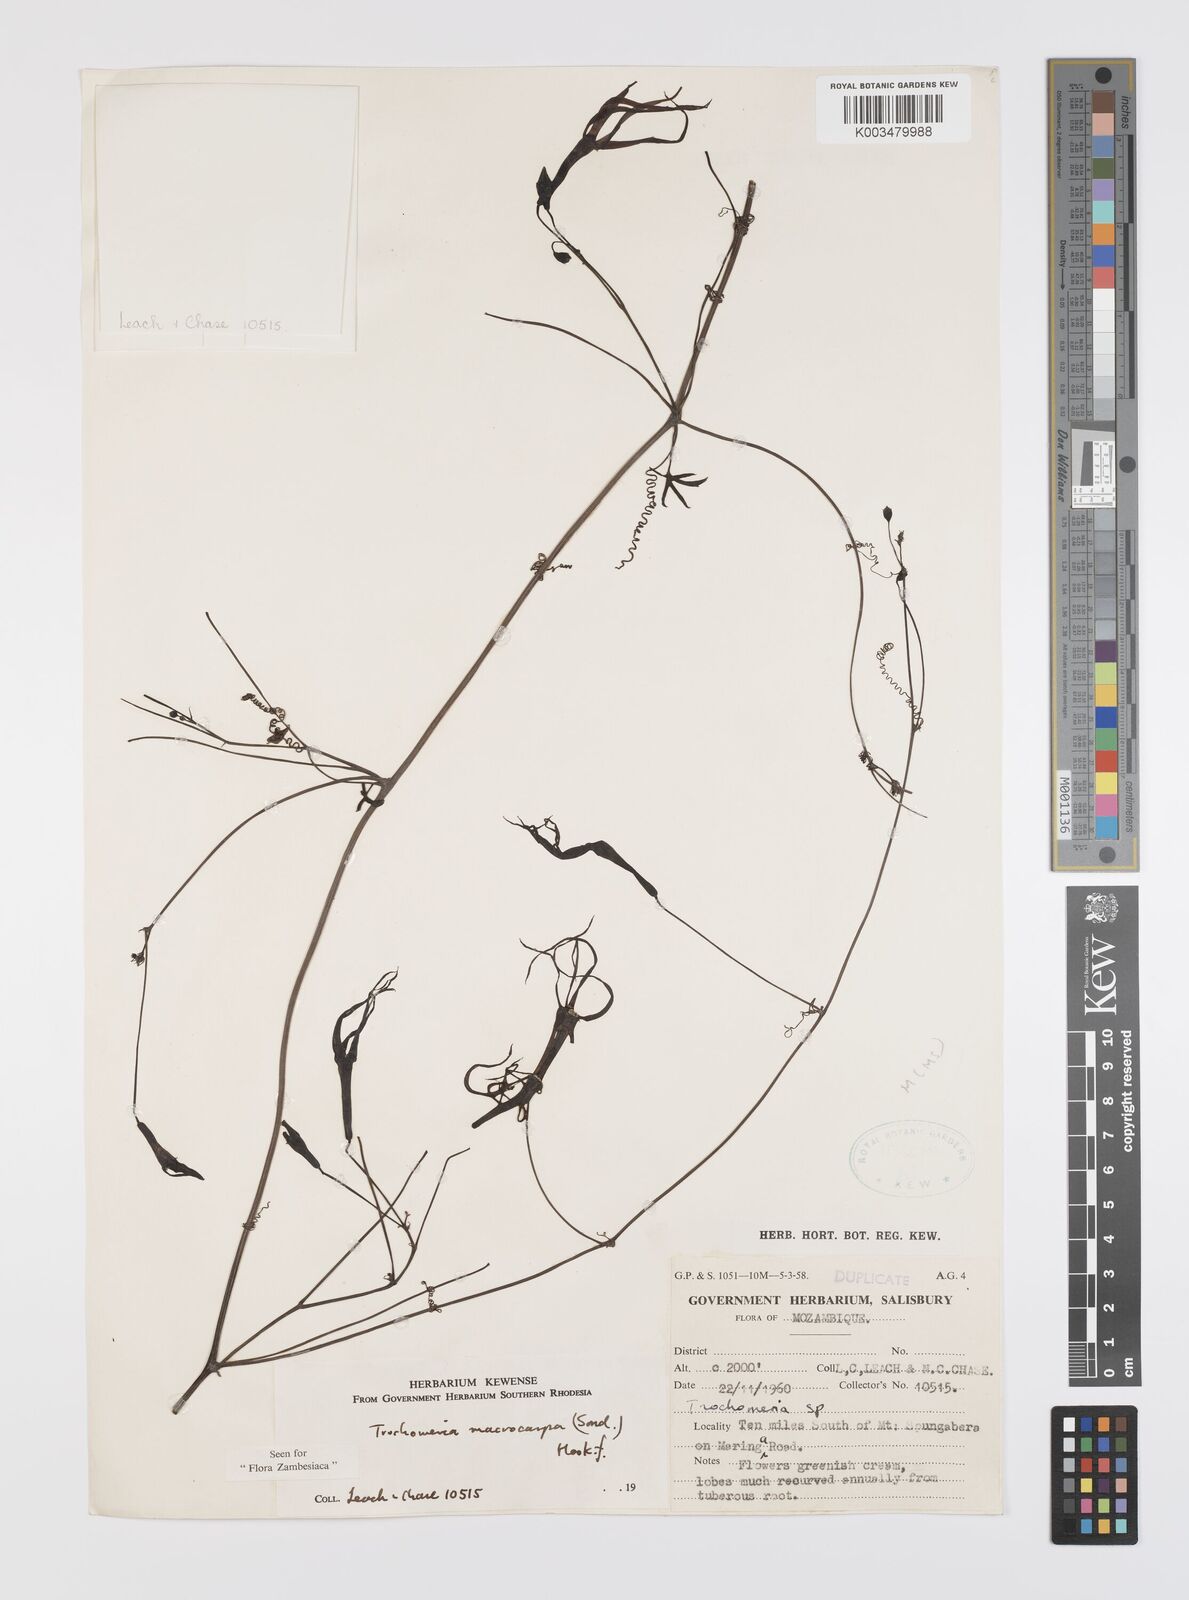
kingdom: Plantae
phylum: Tracheophyta
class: Magnoliopsida
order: Cucurbitales
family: Cucurbitaceae
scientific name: Cucurbitaceae
